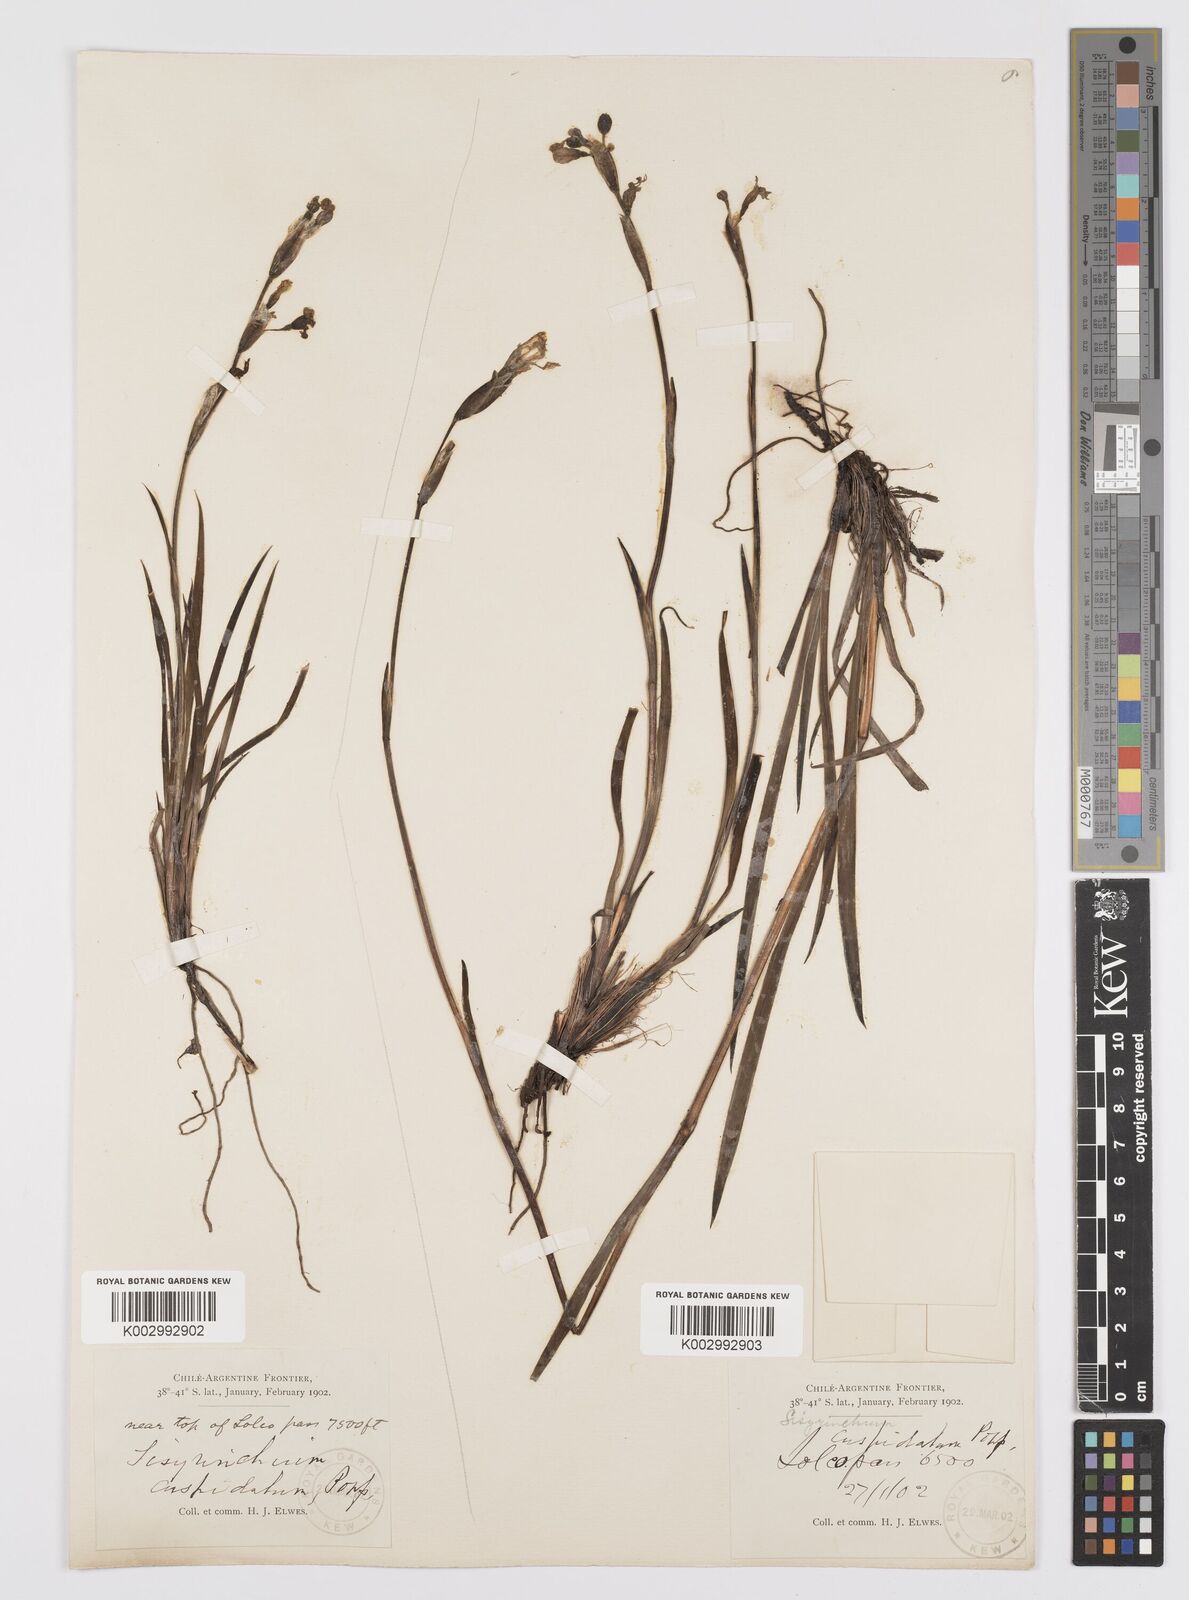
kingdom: Plantae
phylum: Tracheophyta
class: Liliopsida
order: Asparagales
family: Iridaceae
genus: Sisyrinchium
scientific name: Sisyrinchium cuspidatum
